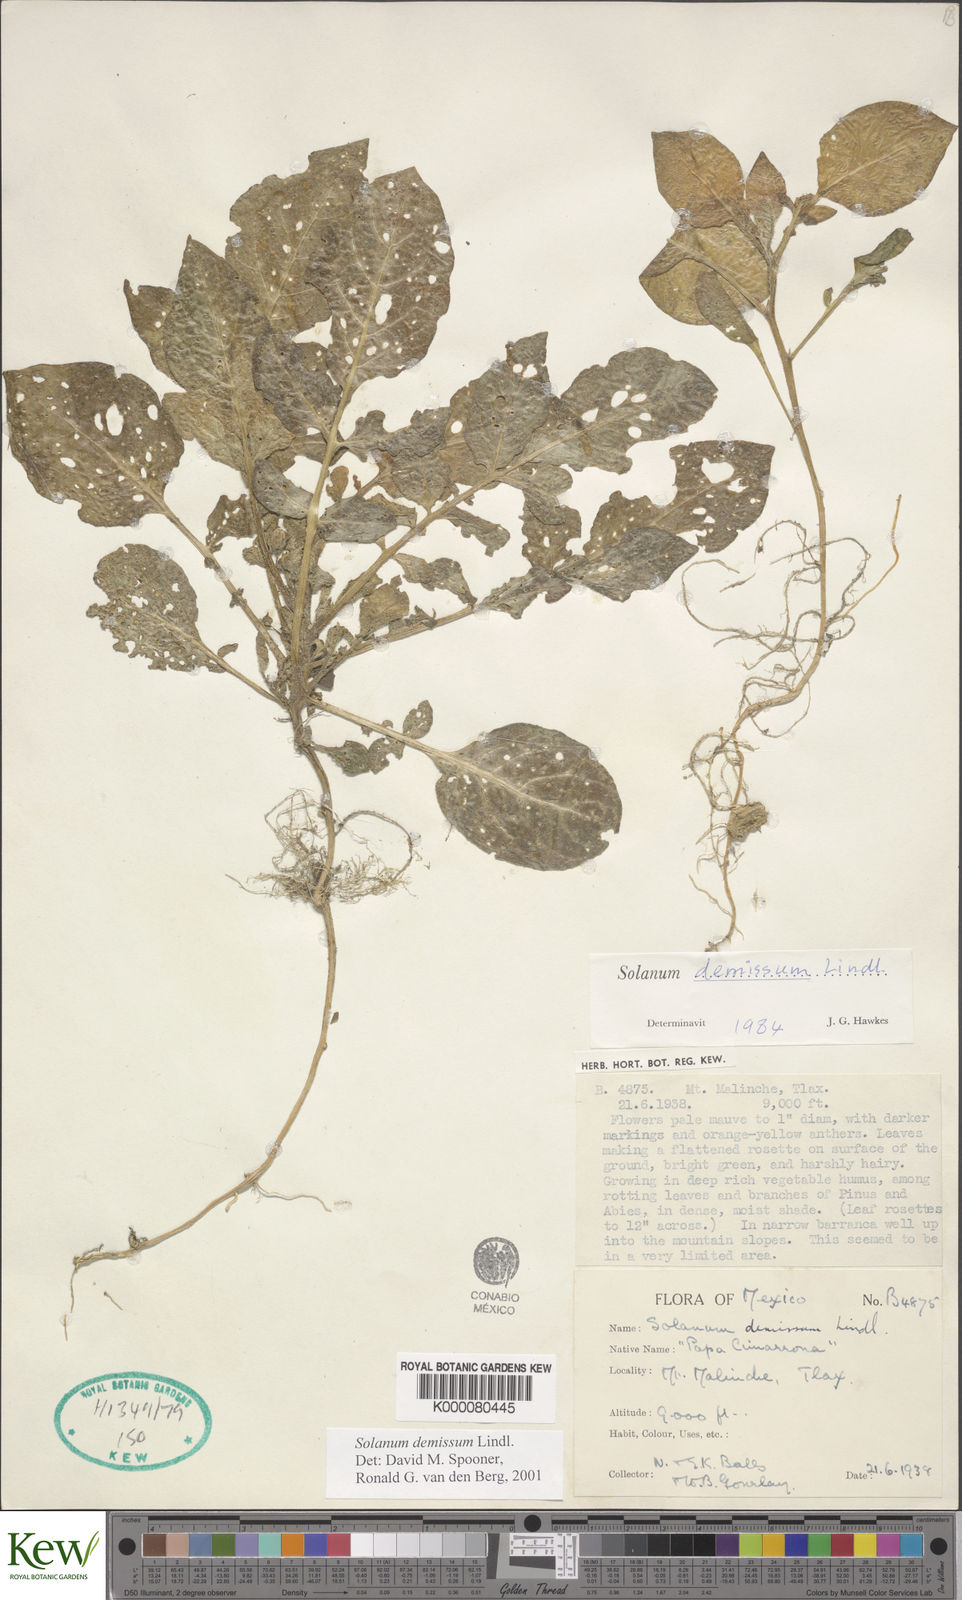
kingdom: Plantae
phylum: Tracheophyta
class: Magnoliopsida
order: Solanales
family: Solanaceae
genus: Solanum
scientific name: Solanum demissum
